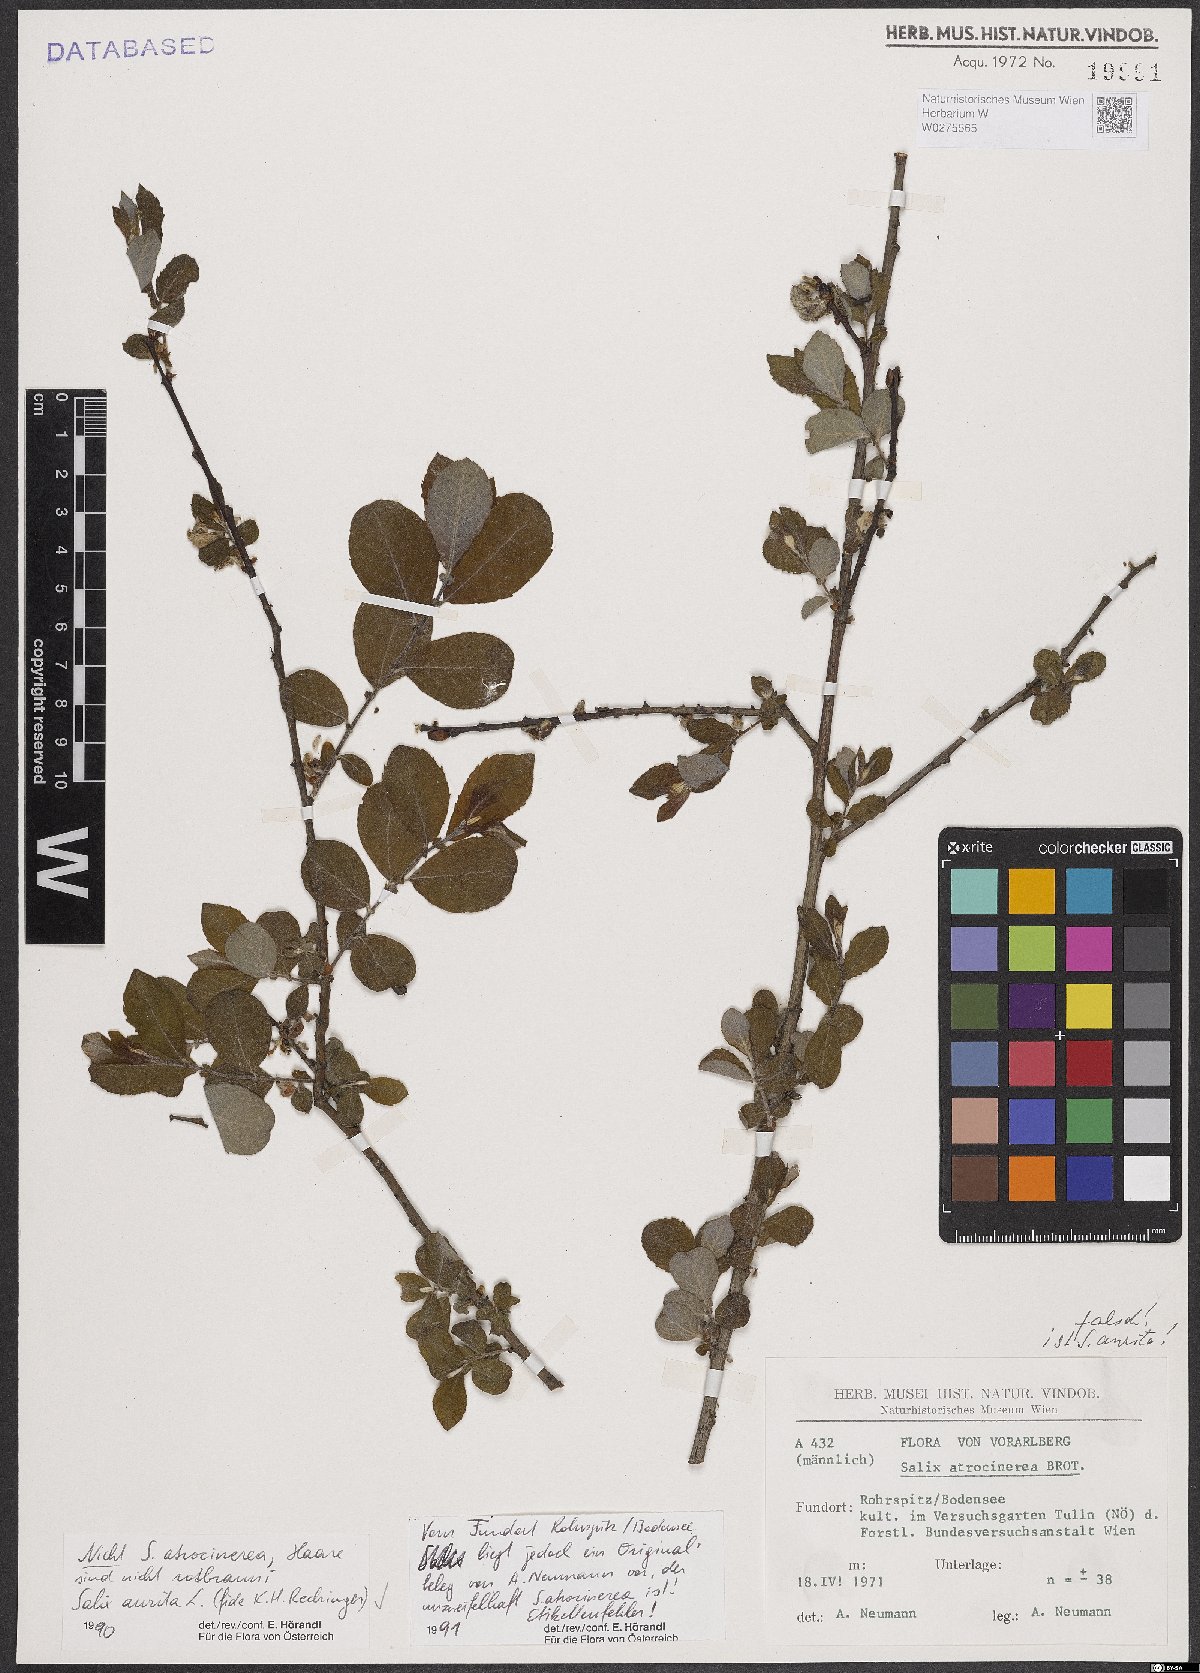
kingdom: Plantae
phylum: Tracheophyta
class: Magnoliopsida
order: Malpighiales
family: Salicaceae
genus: Salix
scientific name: Salix aurita
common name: Eared willow
